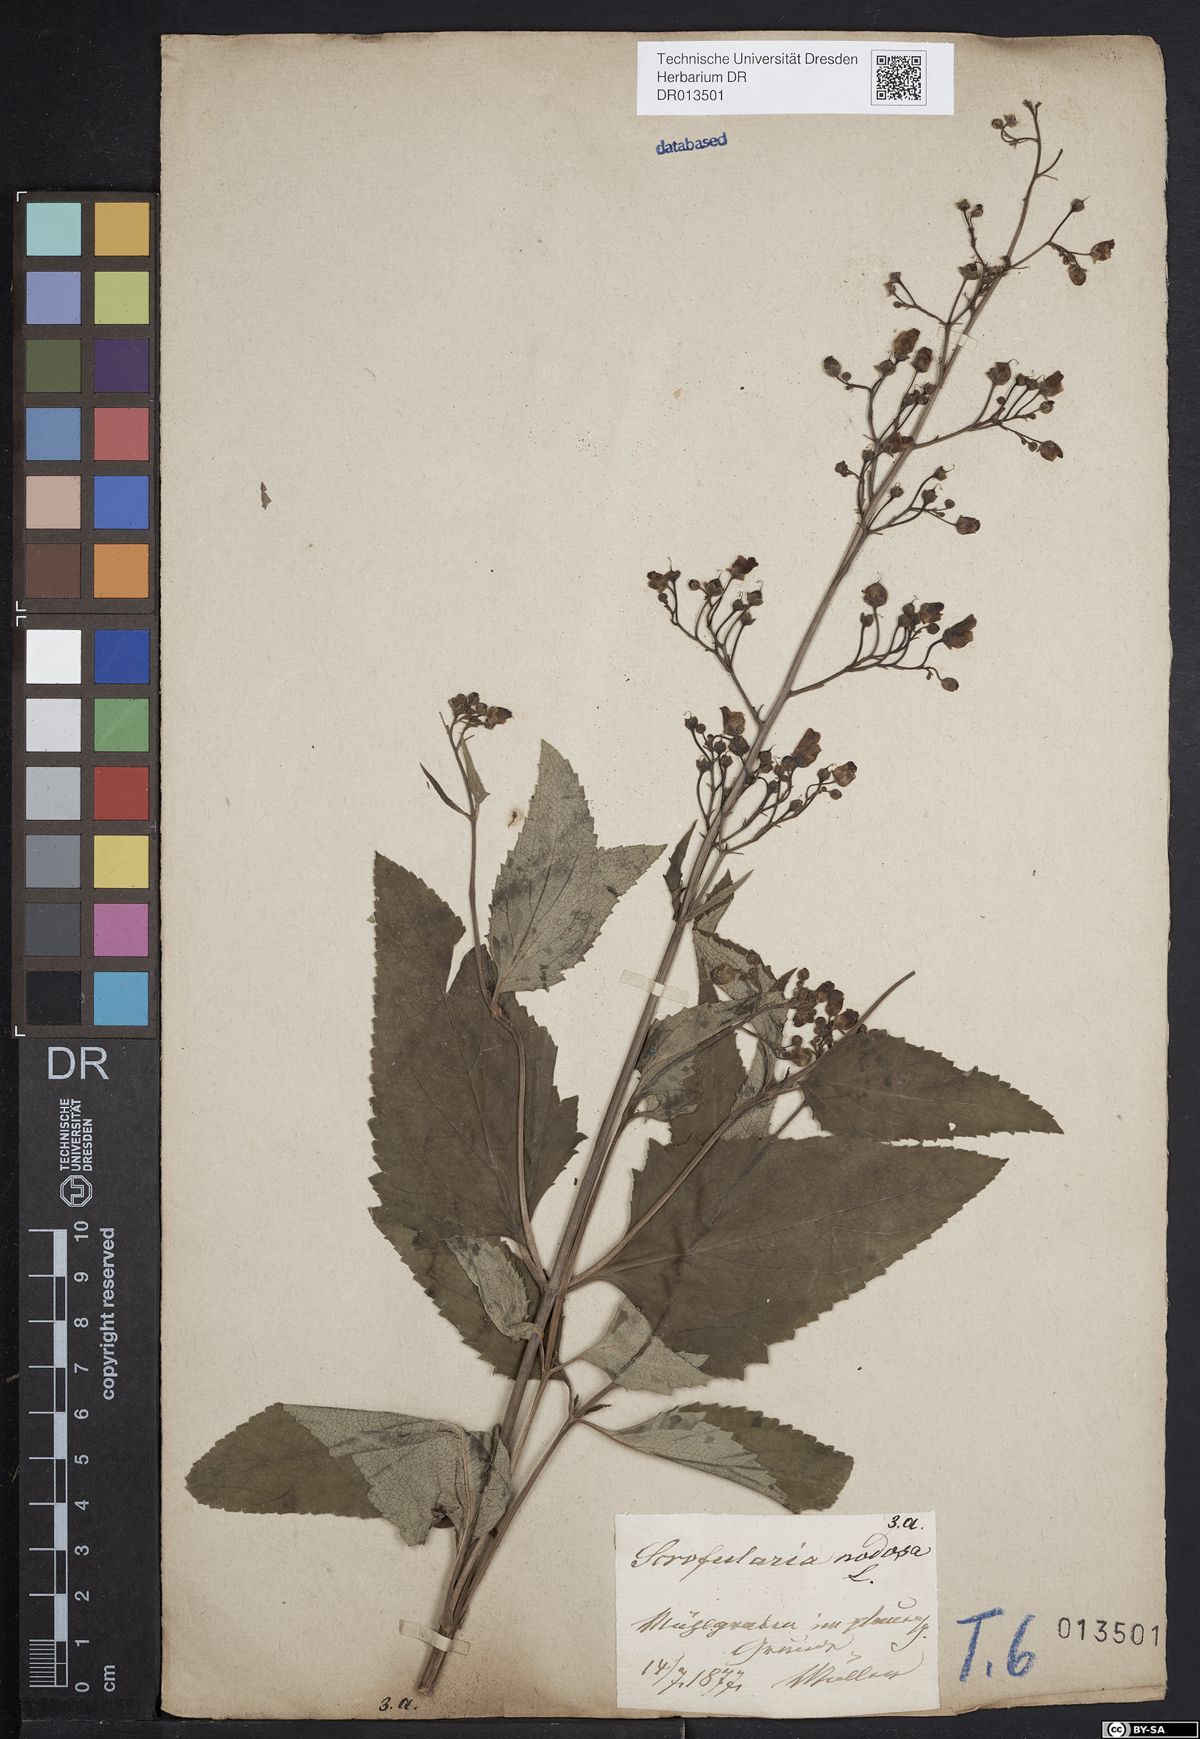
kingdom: Plantae
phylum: Tracheophyta
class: Magnoliopsida
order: Lamiales
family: Scrophulariaceae
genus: Scrophularia
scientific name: Scrophularia nodosa
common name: Common figwort
